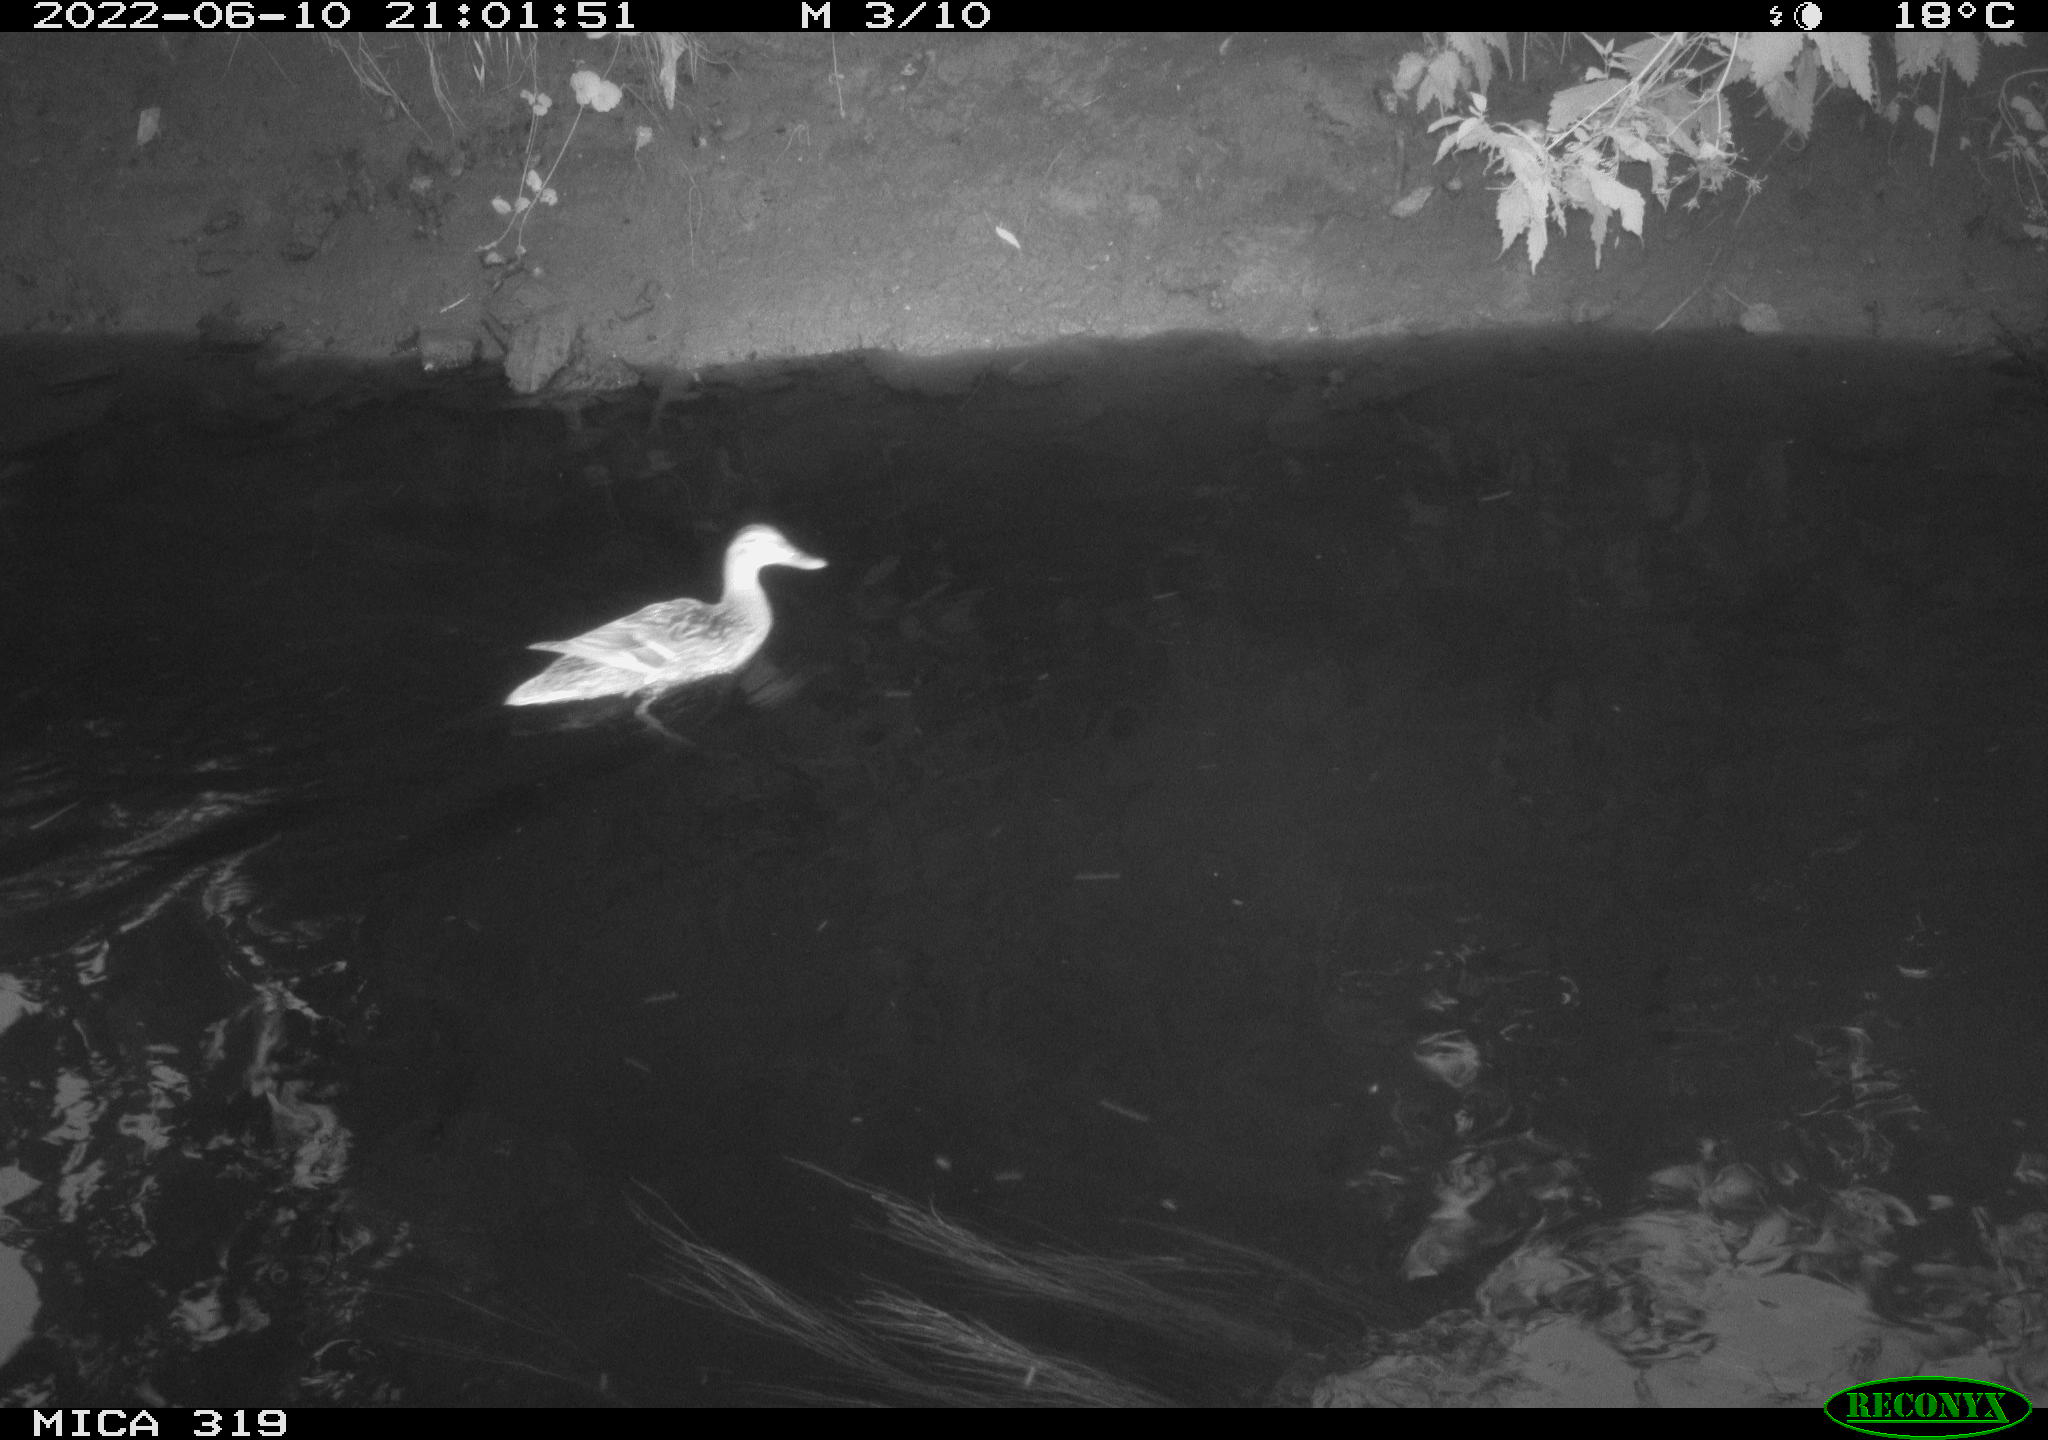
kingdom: Animalia
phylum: Chordata
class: Aves
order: Anseriformes
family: Anatidae
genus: Anas
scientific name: Anas
